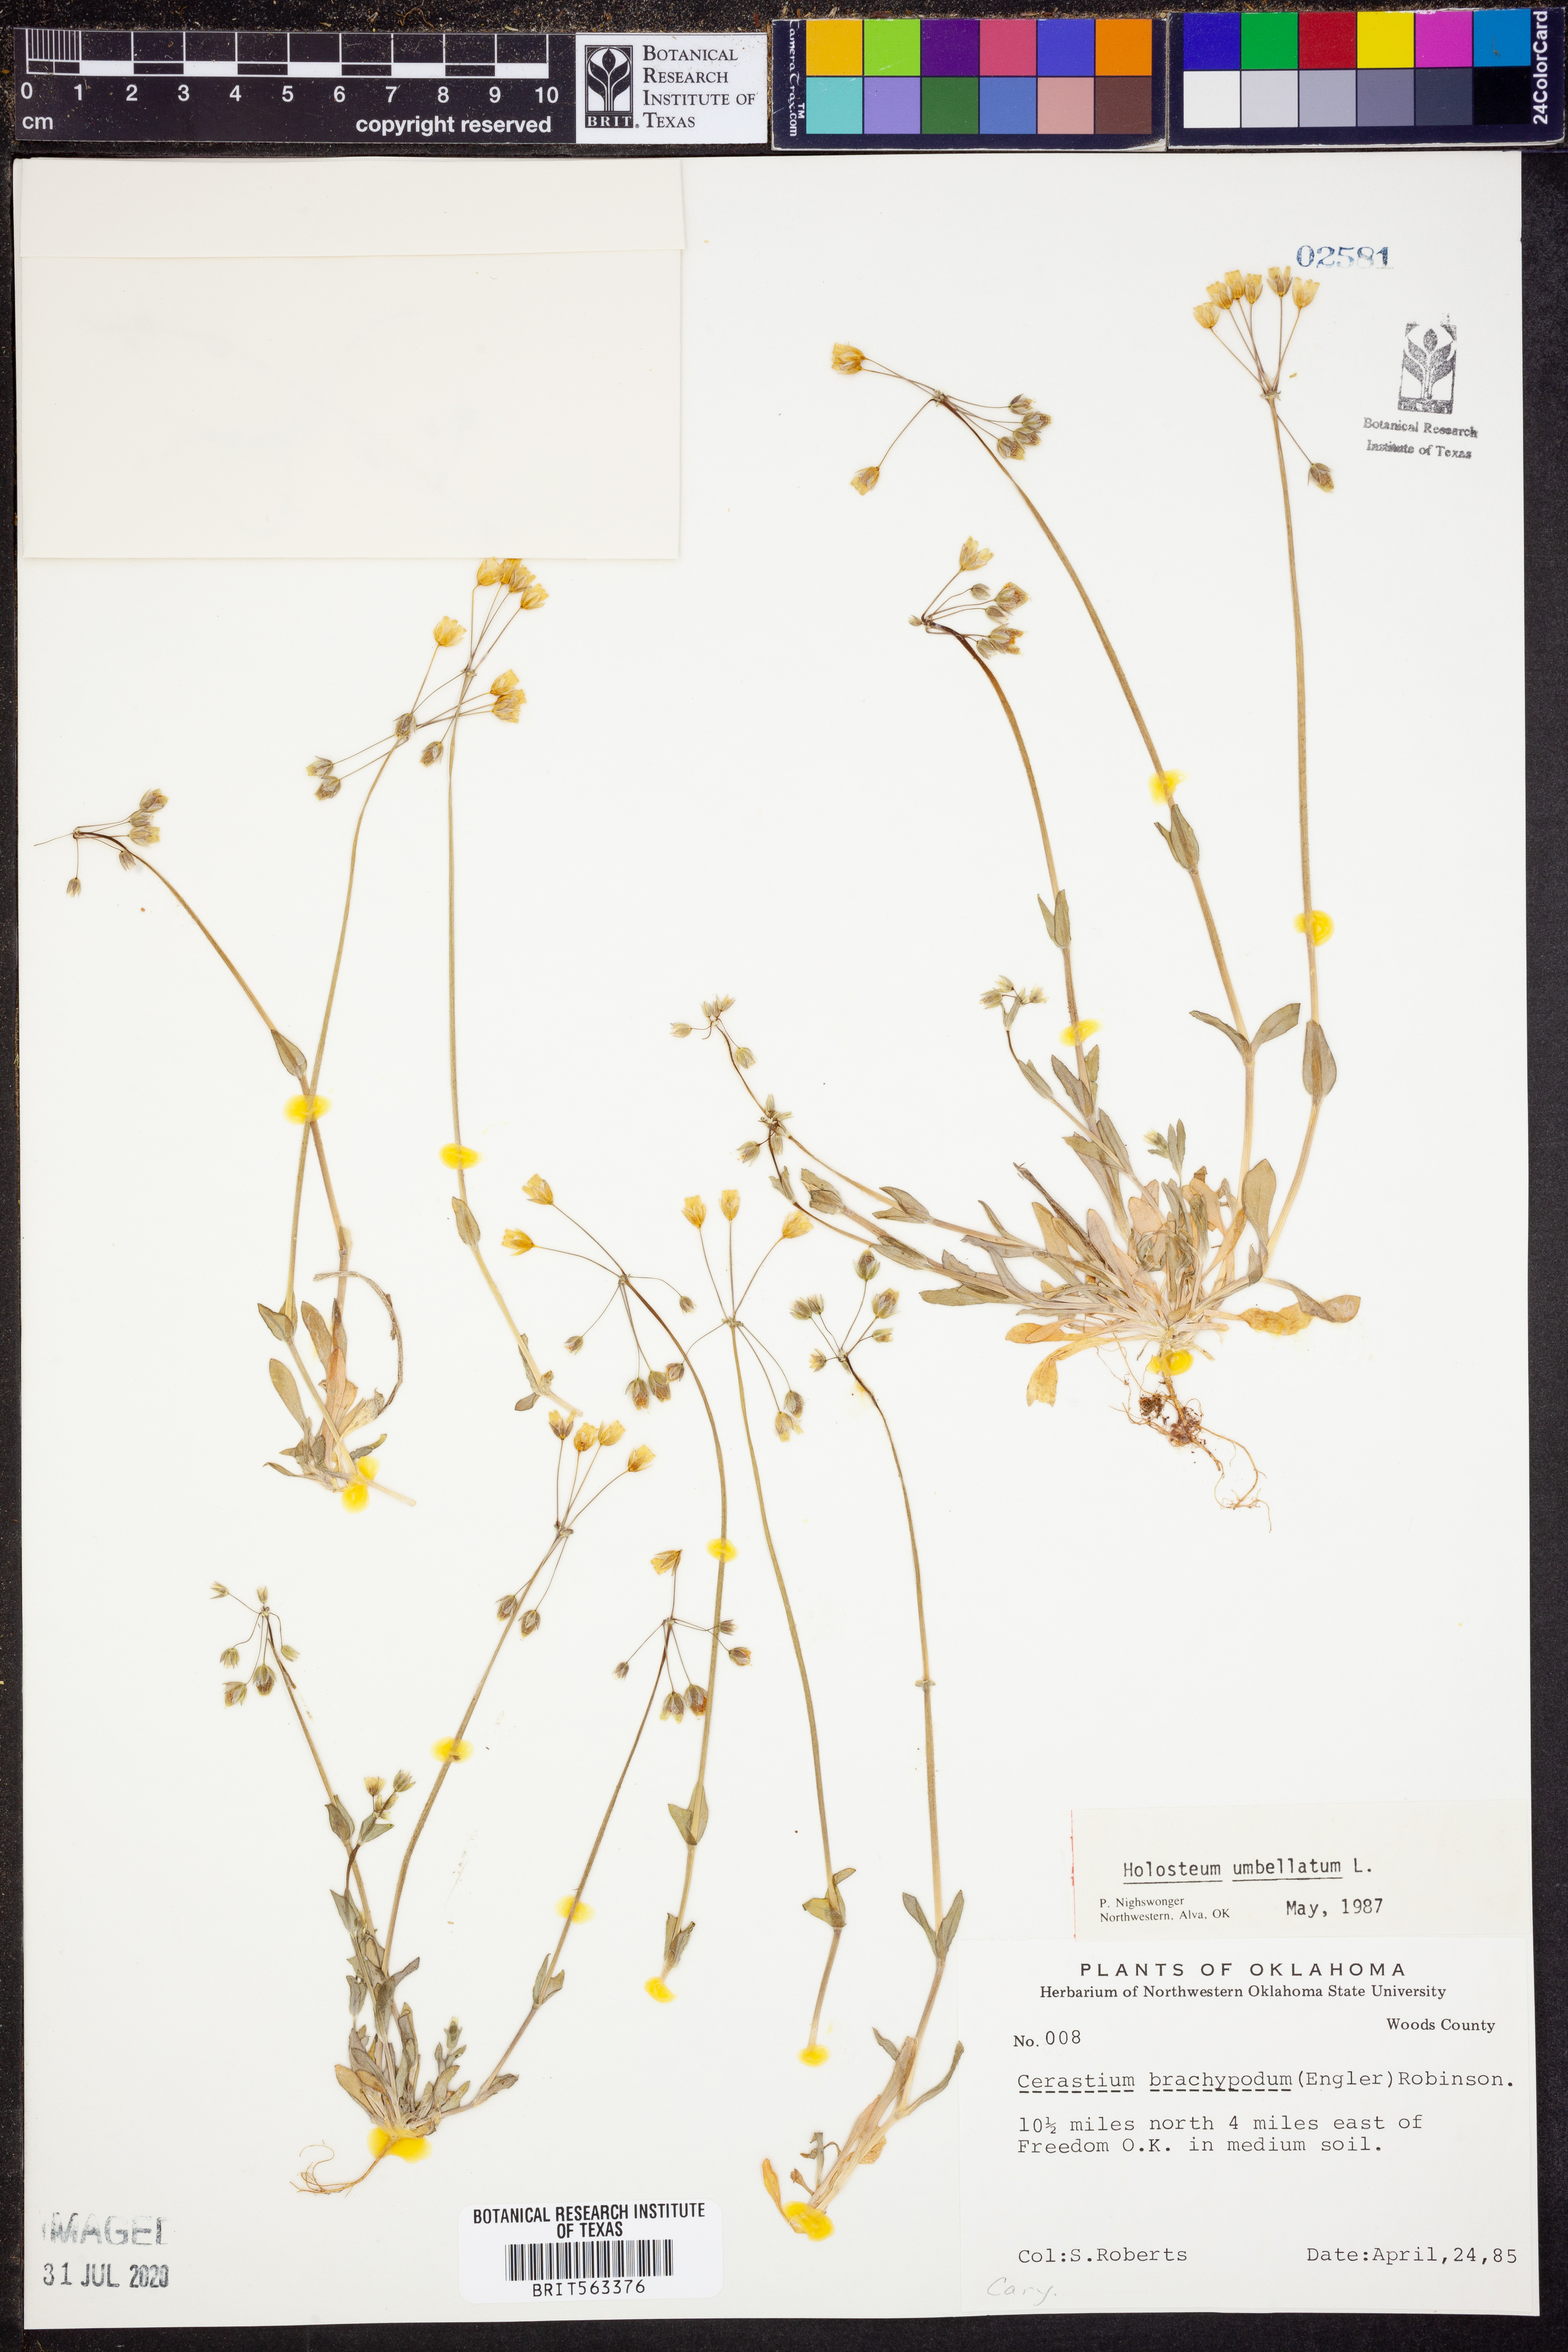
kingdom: Plantae
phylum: Tracheophyta
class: Magnoliopsida
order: Caryophyllales
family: Caryophyllaceae
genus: Holosteum
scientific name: Holosteum umbellatum
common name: Jagged chickweed
